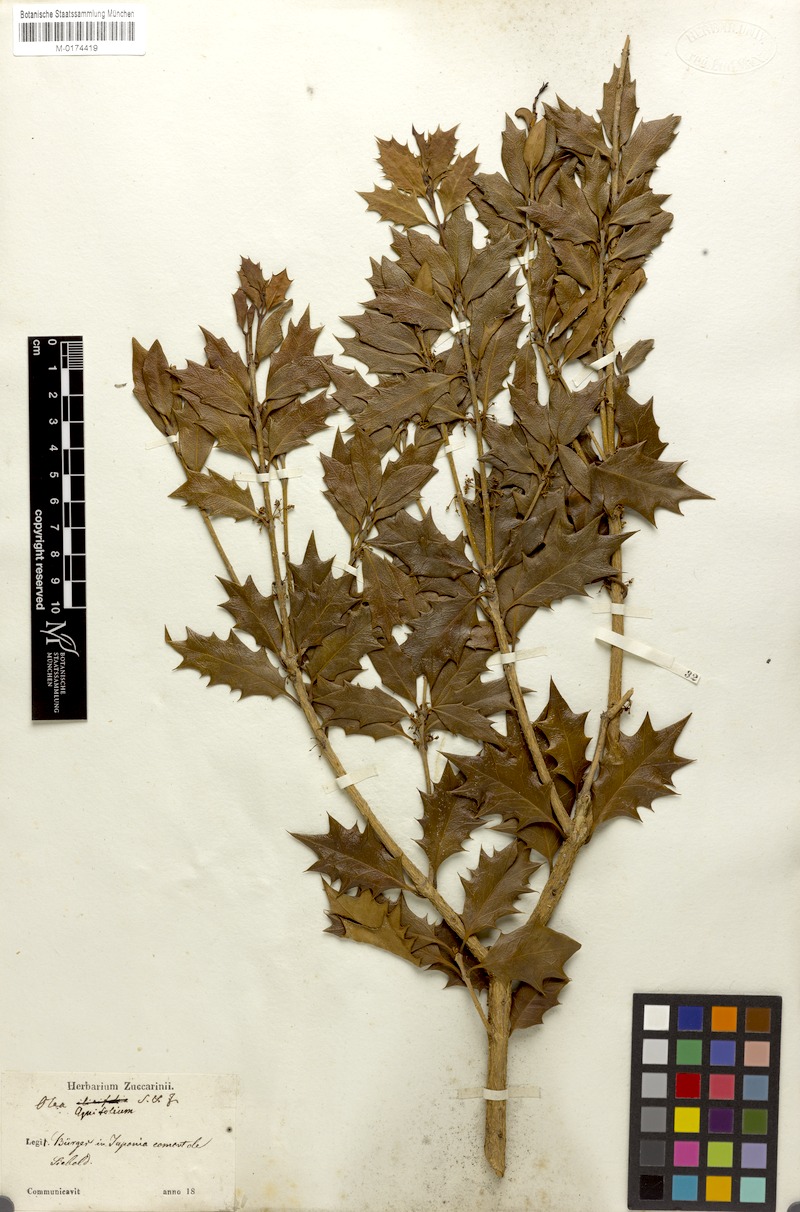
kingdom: Plantae
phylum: Tracheophyta
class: Magnoliopsida
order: Lamiales
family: Oleaceae
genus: Osmanthus
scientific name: Osmanthus heterophyllus
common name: Holly osmanthus
